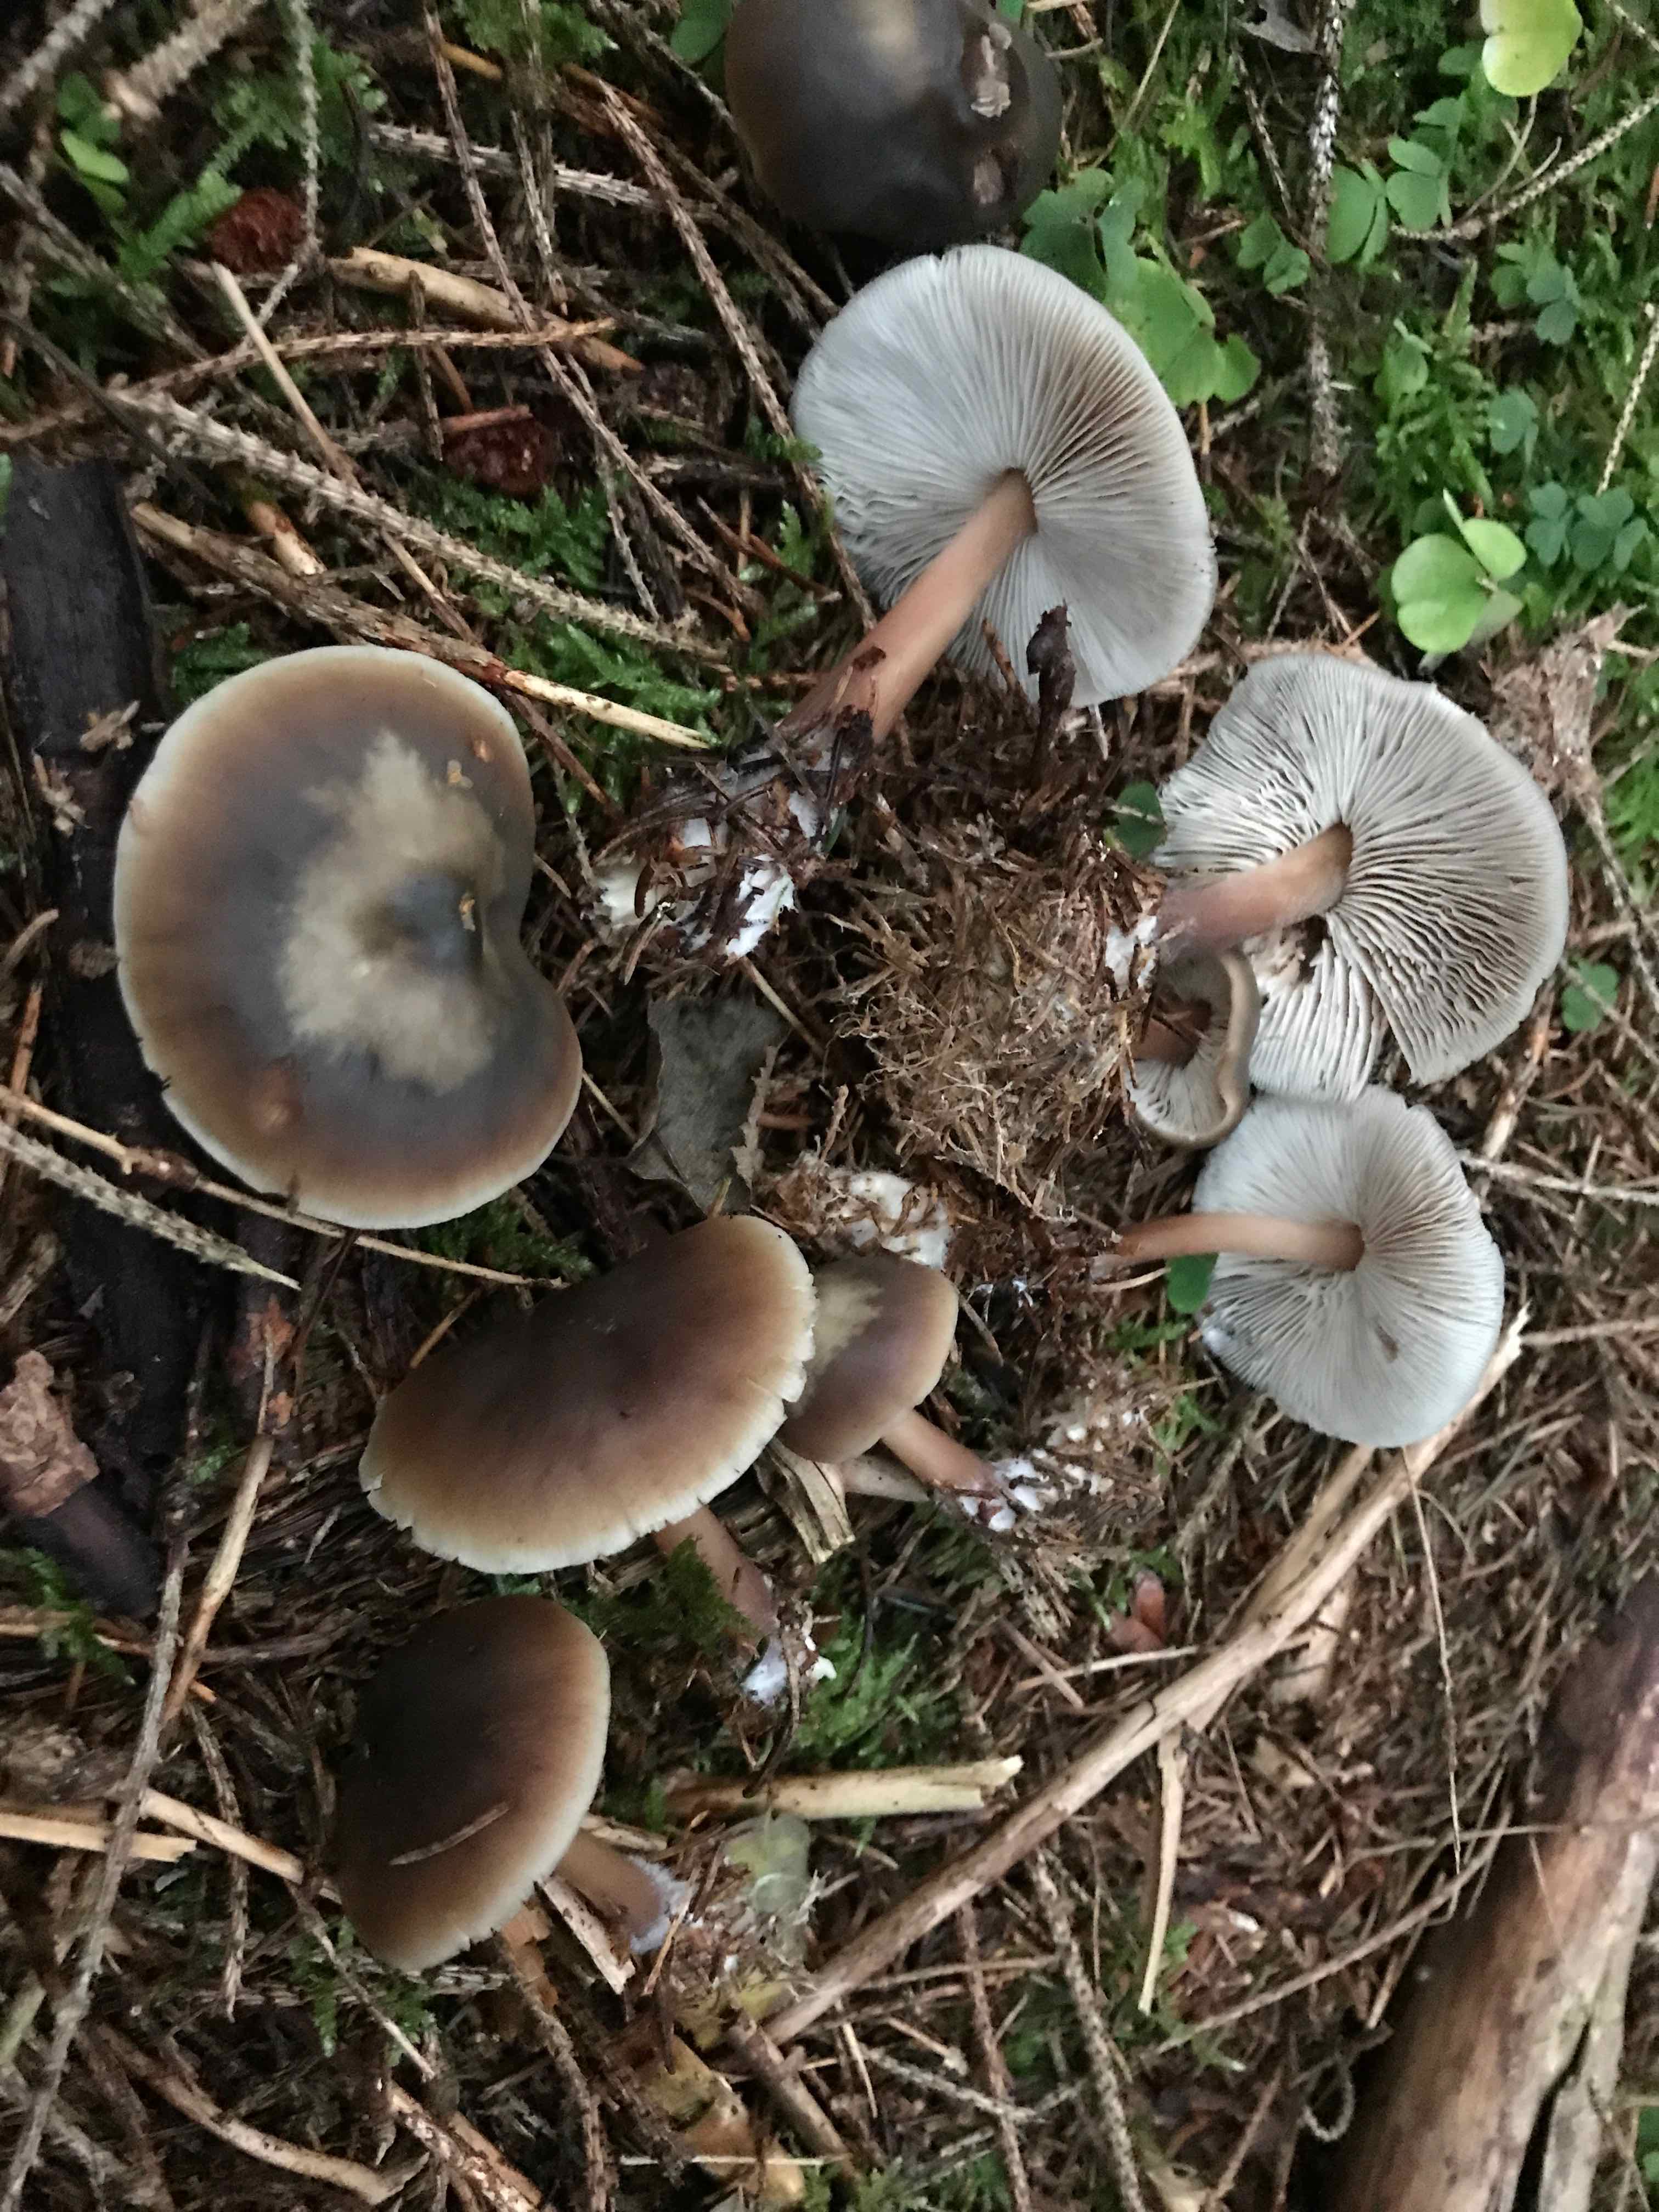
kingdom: Fungi
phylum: Basidiomycota
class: Agaricomycetes
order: Agaricales
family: Omphalotaceae
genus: Rhodocollybia
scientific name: Rhodocollybia asema
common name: horngrå fladhat
